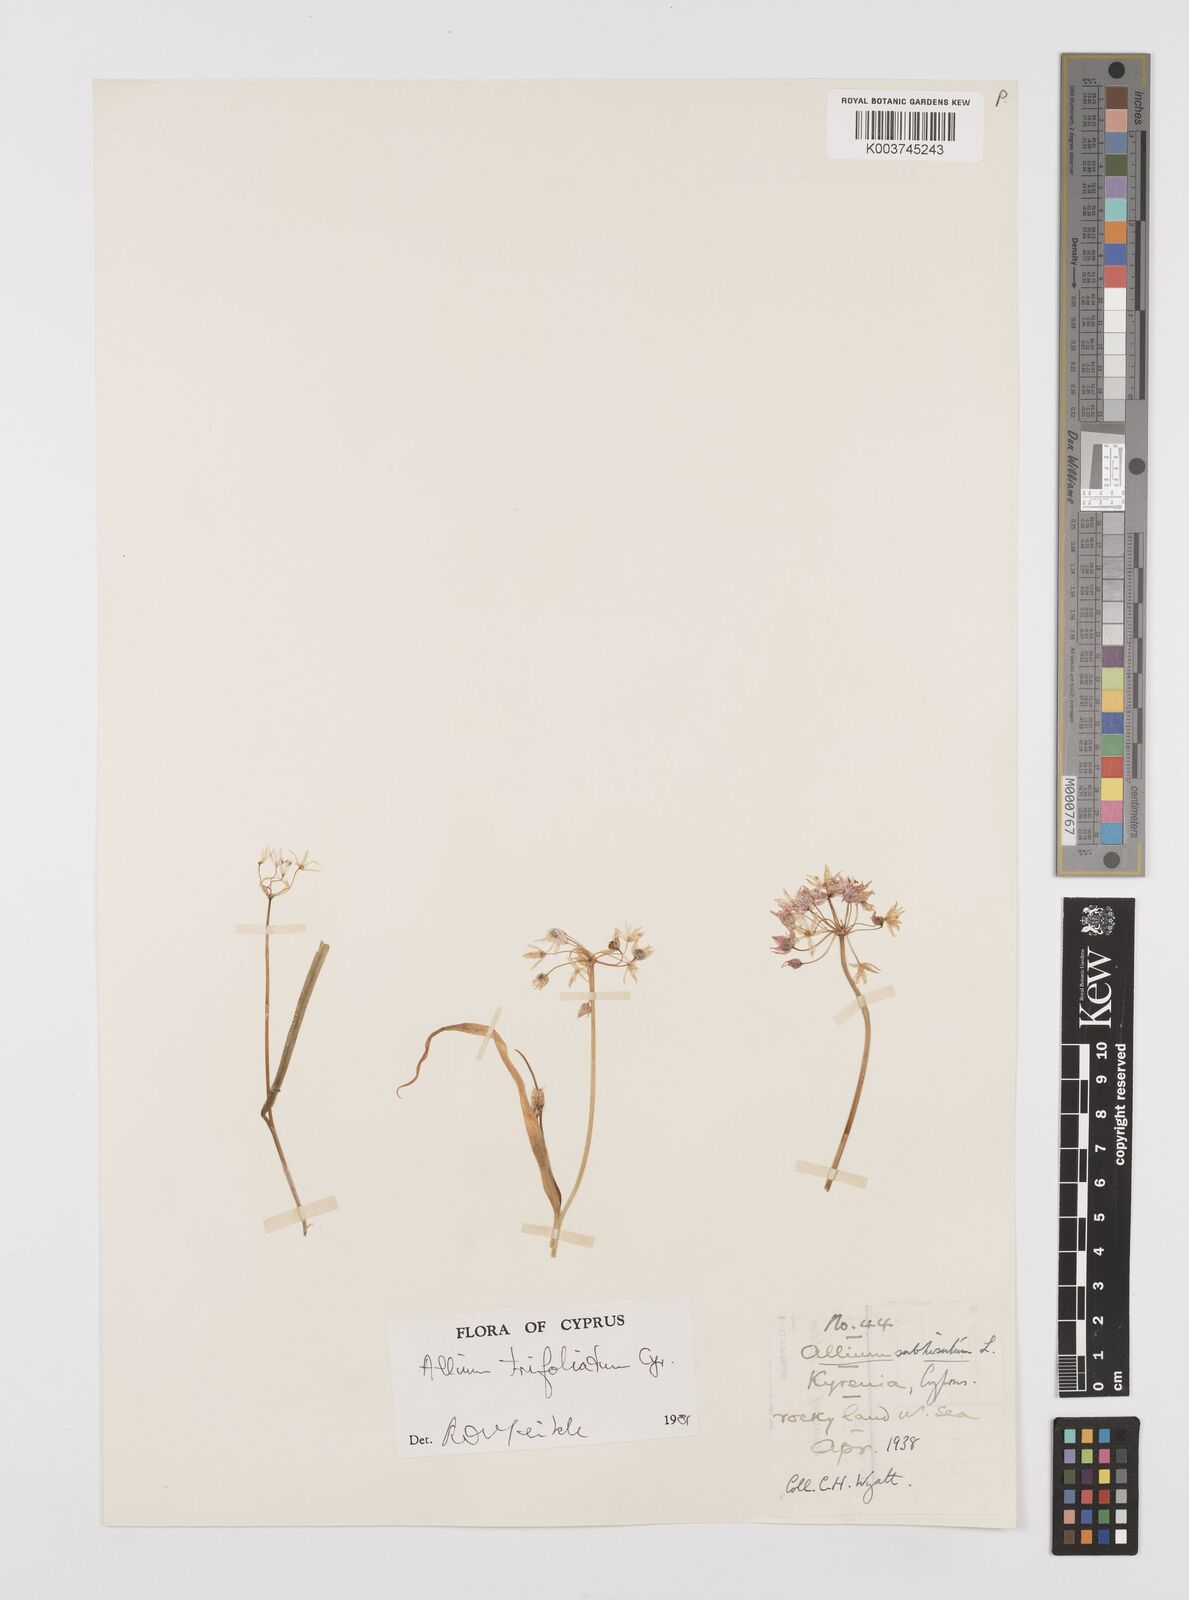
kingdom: Plantae
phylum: Tracheophyta
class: Liliopsida
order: Asparagales
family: Amaryllidaceae
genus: Allium
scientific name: Allium trifoliatum
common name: Pink garlic
